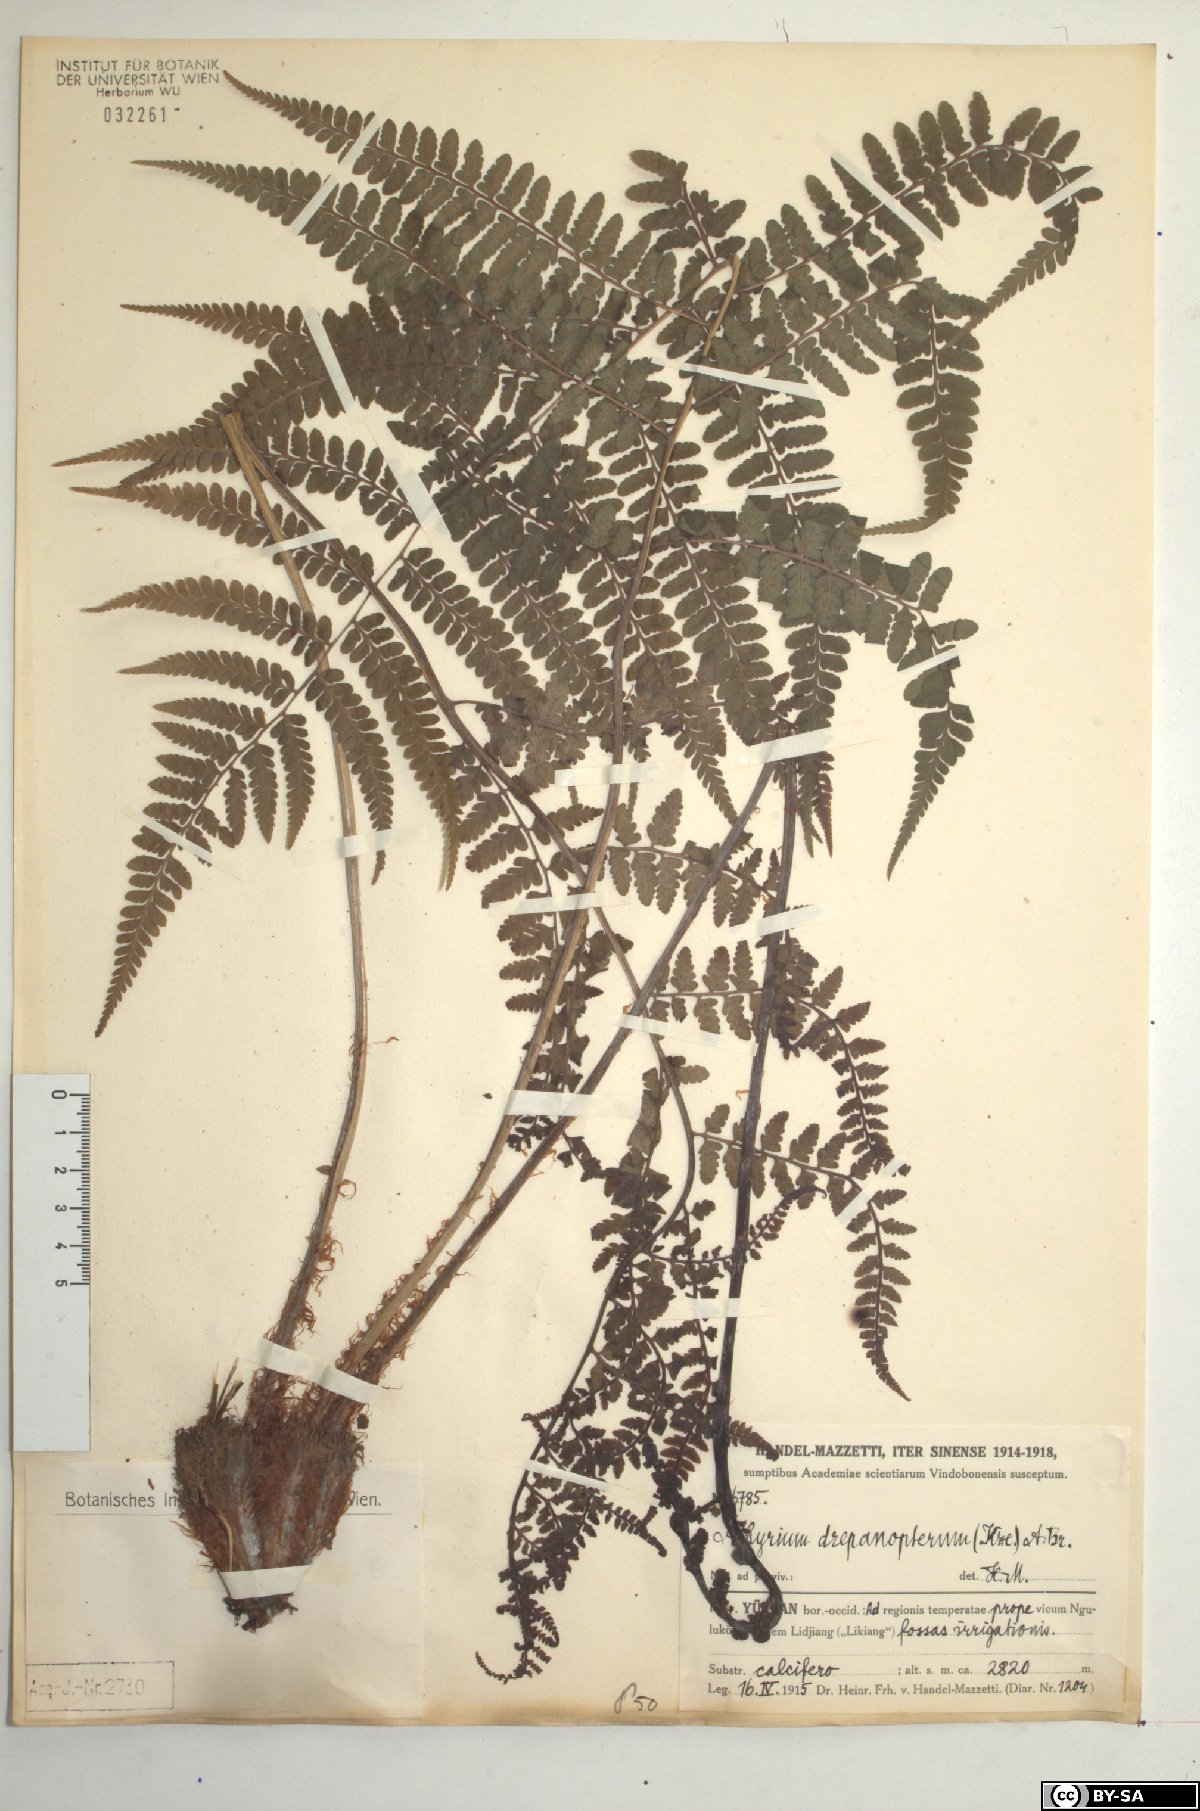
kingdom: Plantae
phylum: Tracheophyta
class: Polypodiopsida
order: Polypodiales
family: Athyriaceae
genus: Athyrium
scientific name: Athyrium drepanopteron
